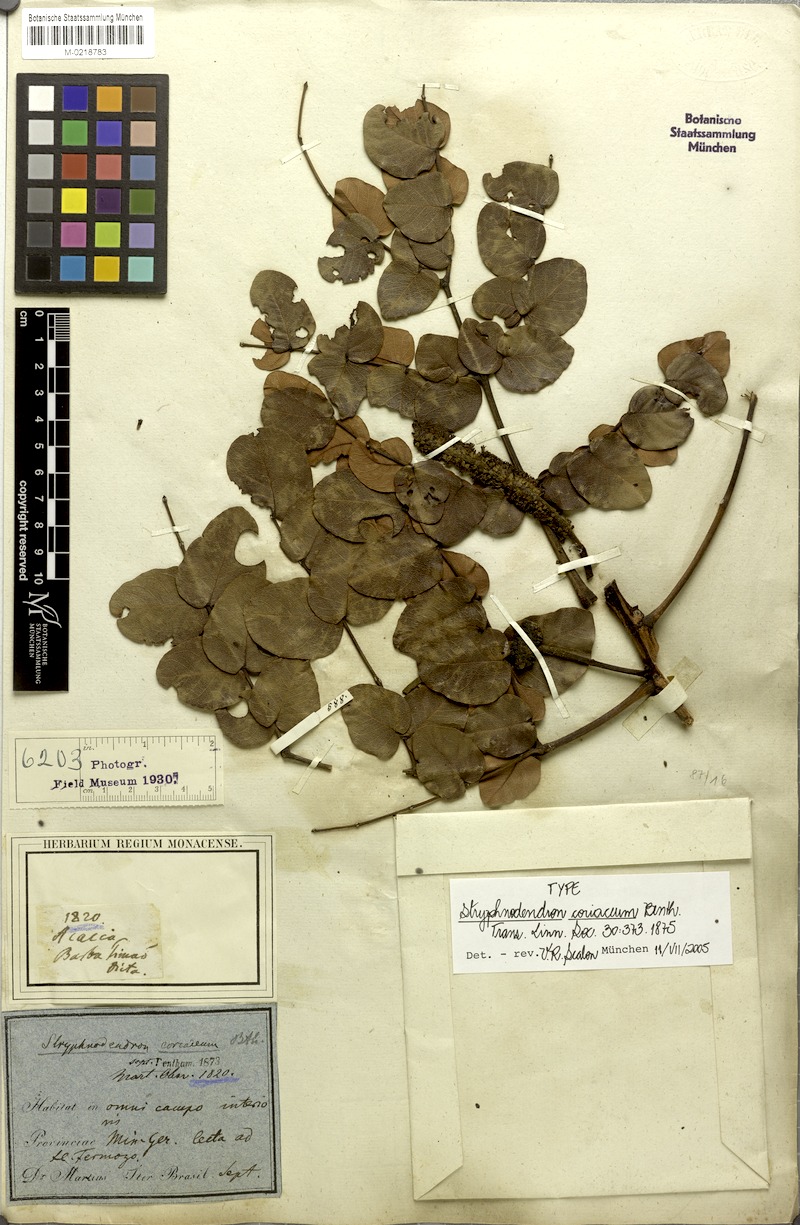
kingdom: Plantae
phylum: Tracheophyta
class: Magnoliopsida
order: Fabales
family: Fabaceae
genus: Stryphnodendron
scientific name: Stryphnodendron coriaceum
